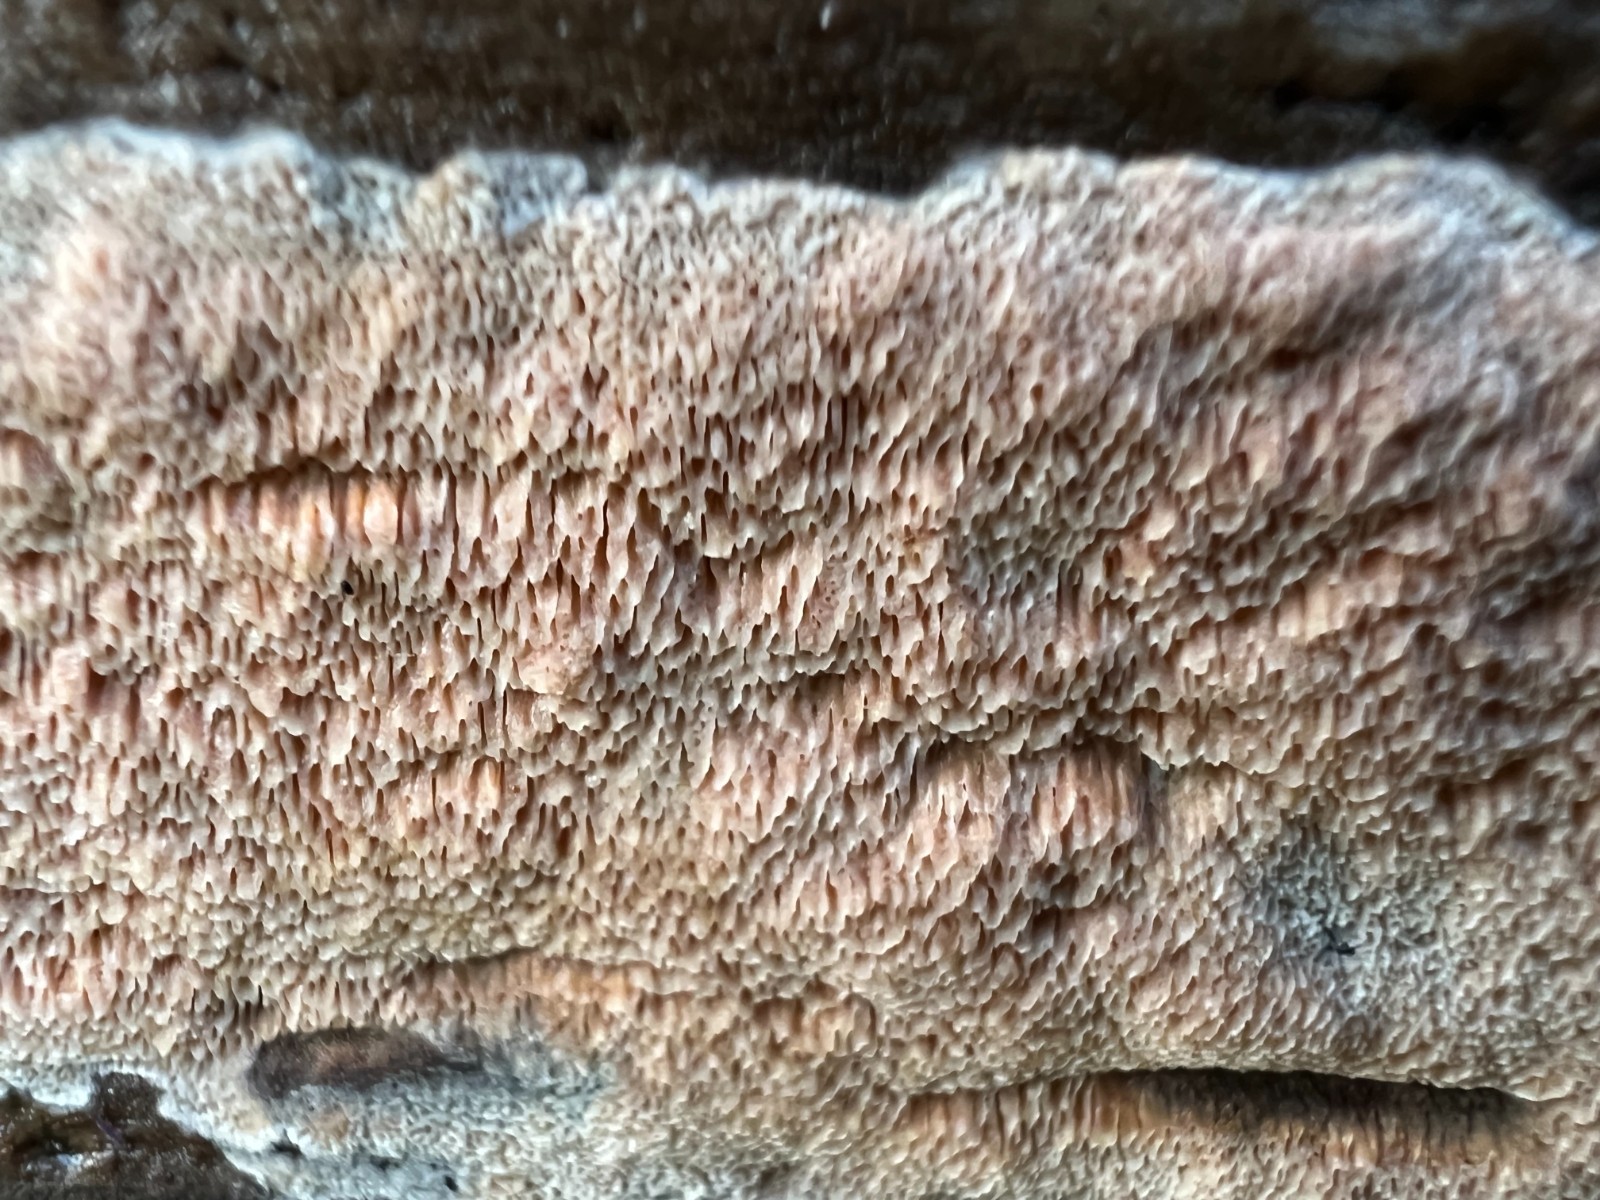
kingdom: Fungi
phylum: Basidiomycota
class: Agaricomycetes
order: Polyporales
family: Meruliaceae
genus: Mycoacia
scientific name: Mycoacia gilvescens
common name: rosa pastelporesvamp
